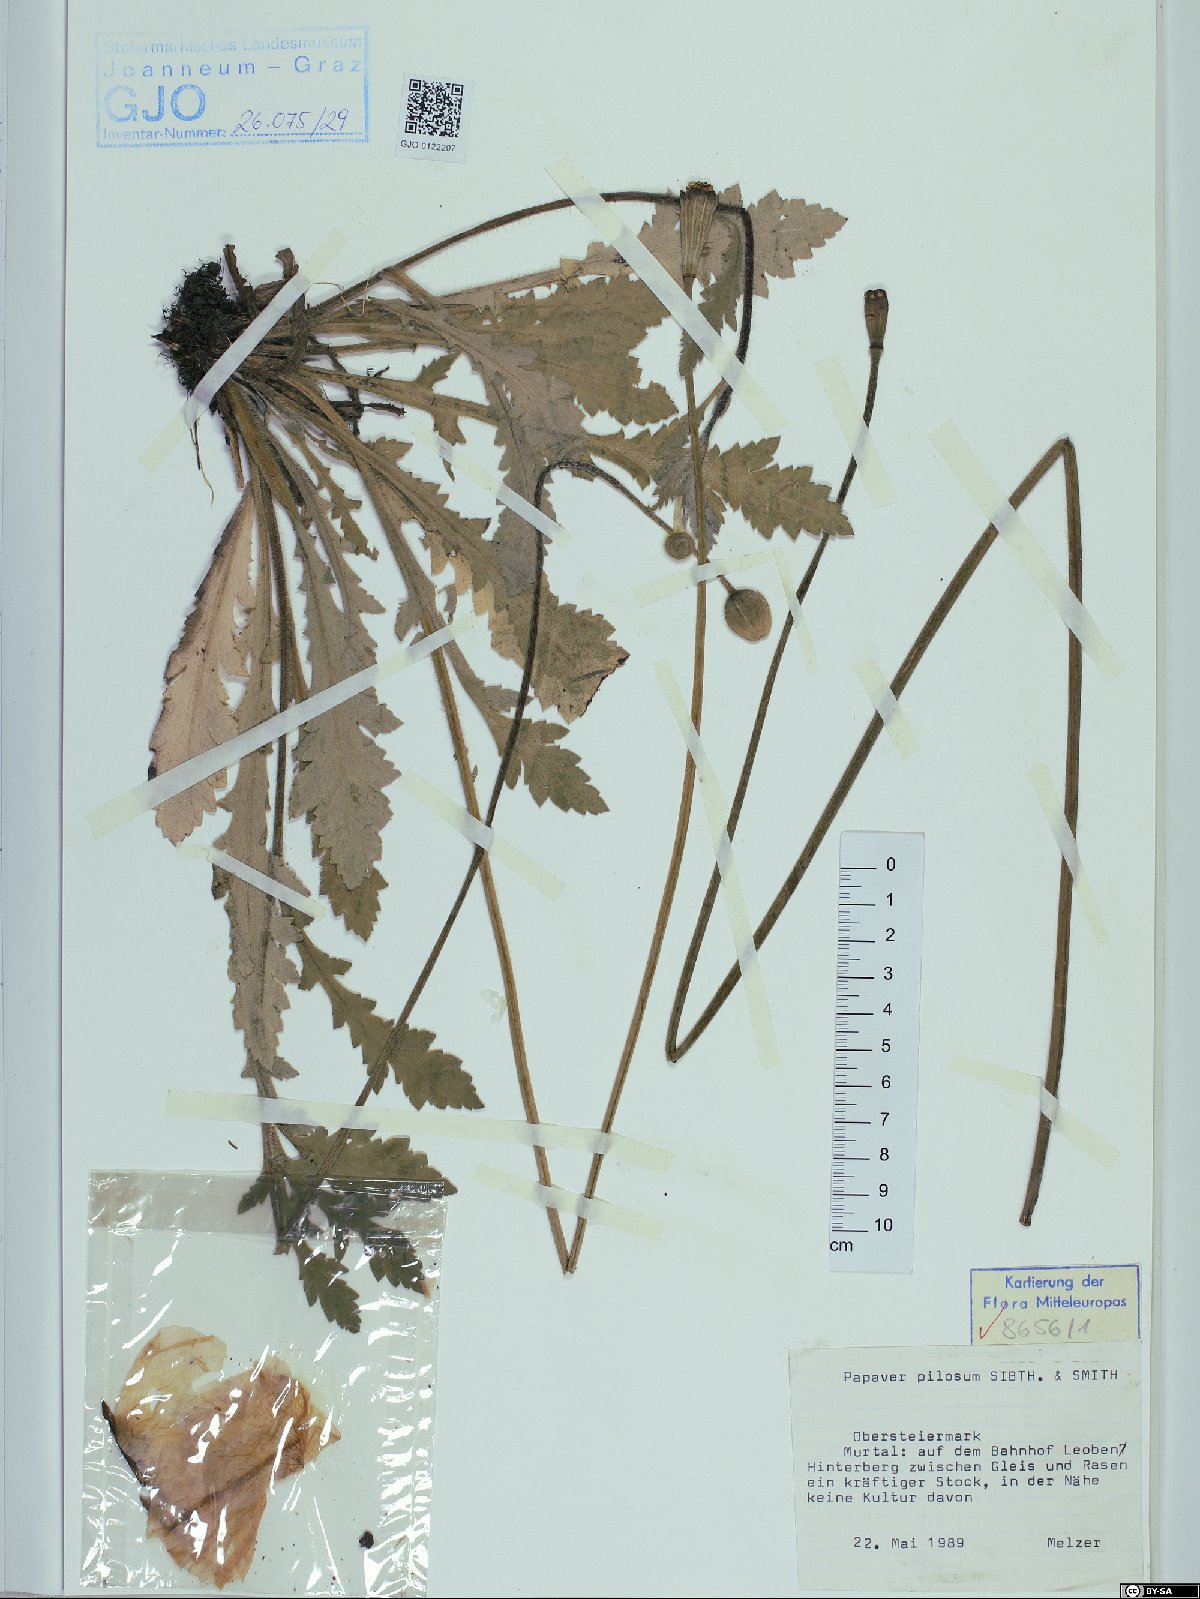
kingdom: Plantae
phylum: Tracheophyta
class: Magnoliopsida
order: Ranunculales
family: Papaveraceae
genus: Papaver
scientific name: Papaver pilosum
